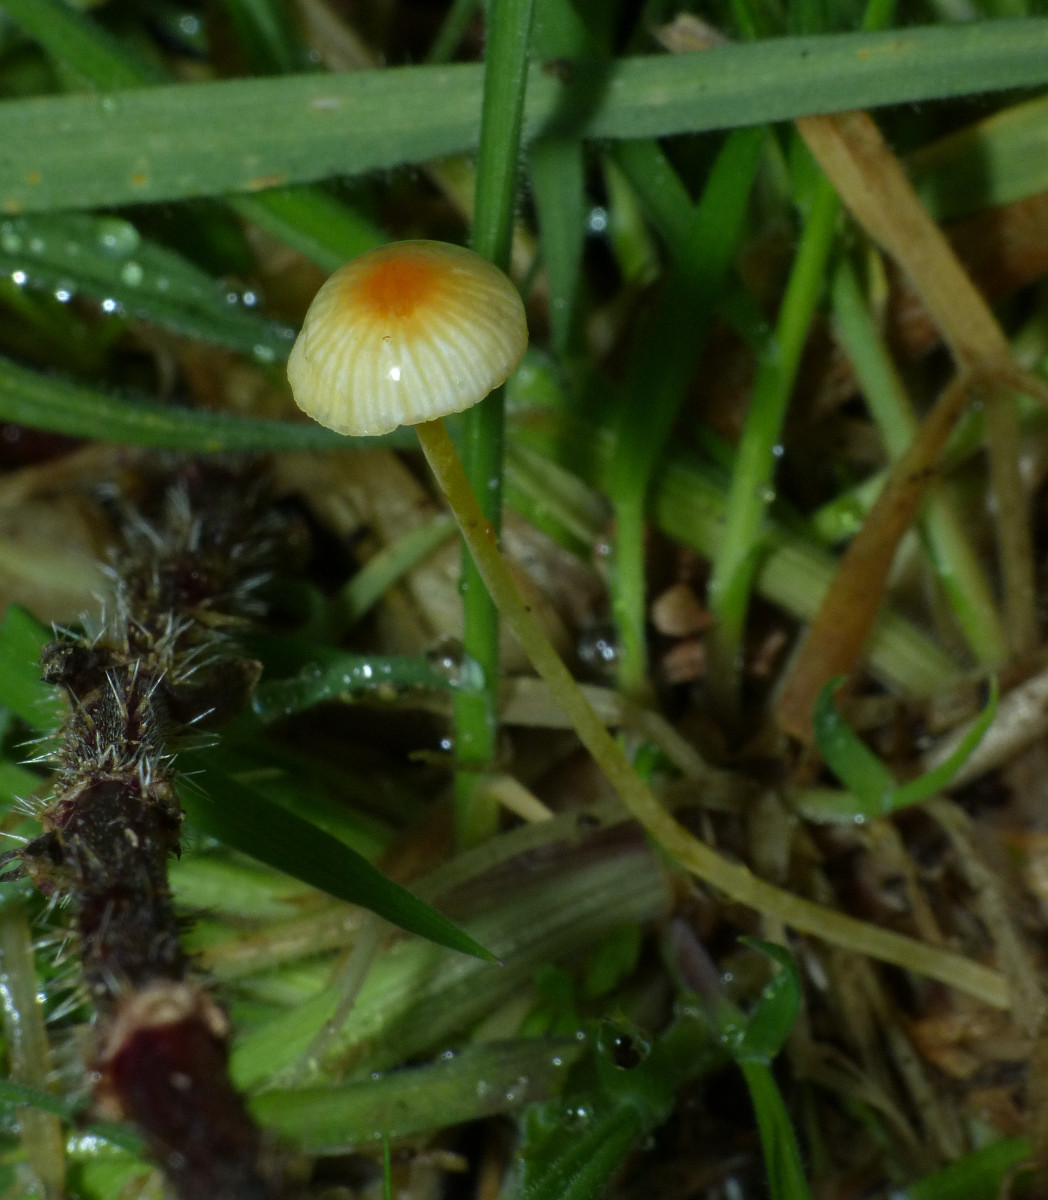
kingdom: Fungi
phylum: Basidiomycota
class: Agaricomycetes
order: Agaricales
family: Mycenaceae
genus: Mycena
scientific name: Mycena acicula
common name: orange huesvamp
